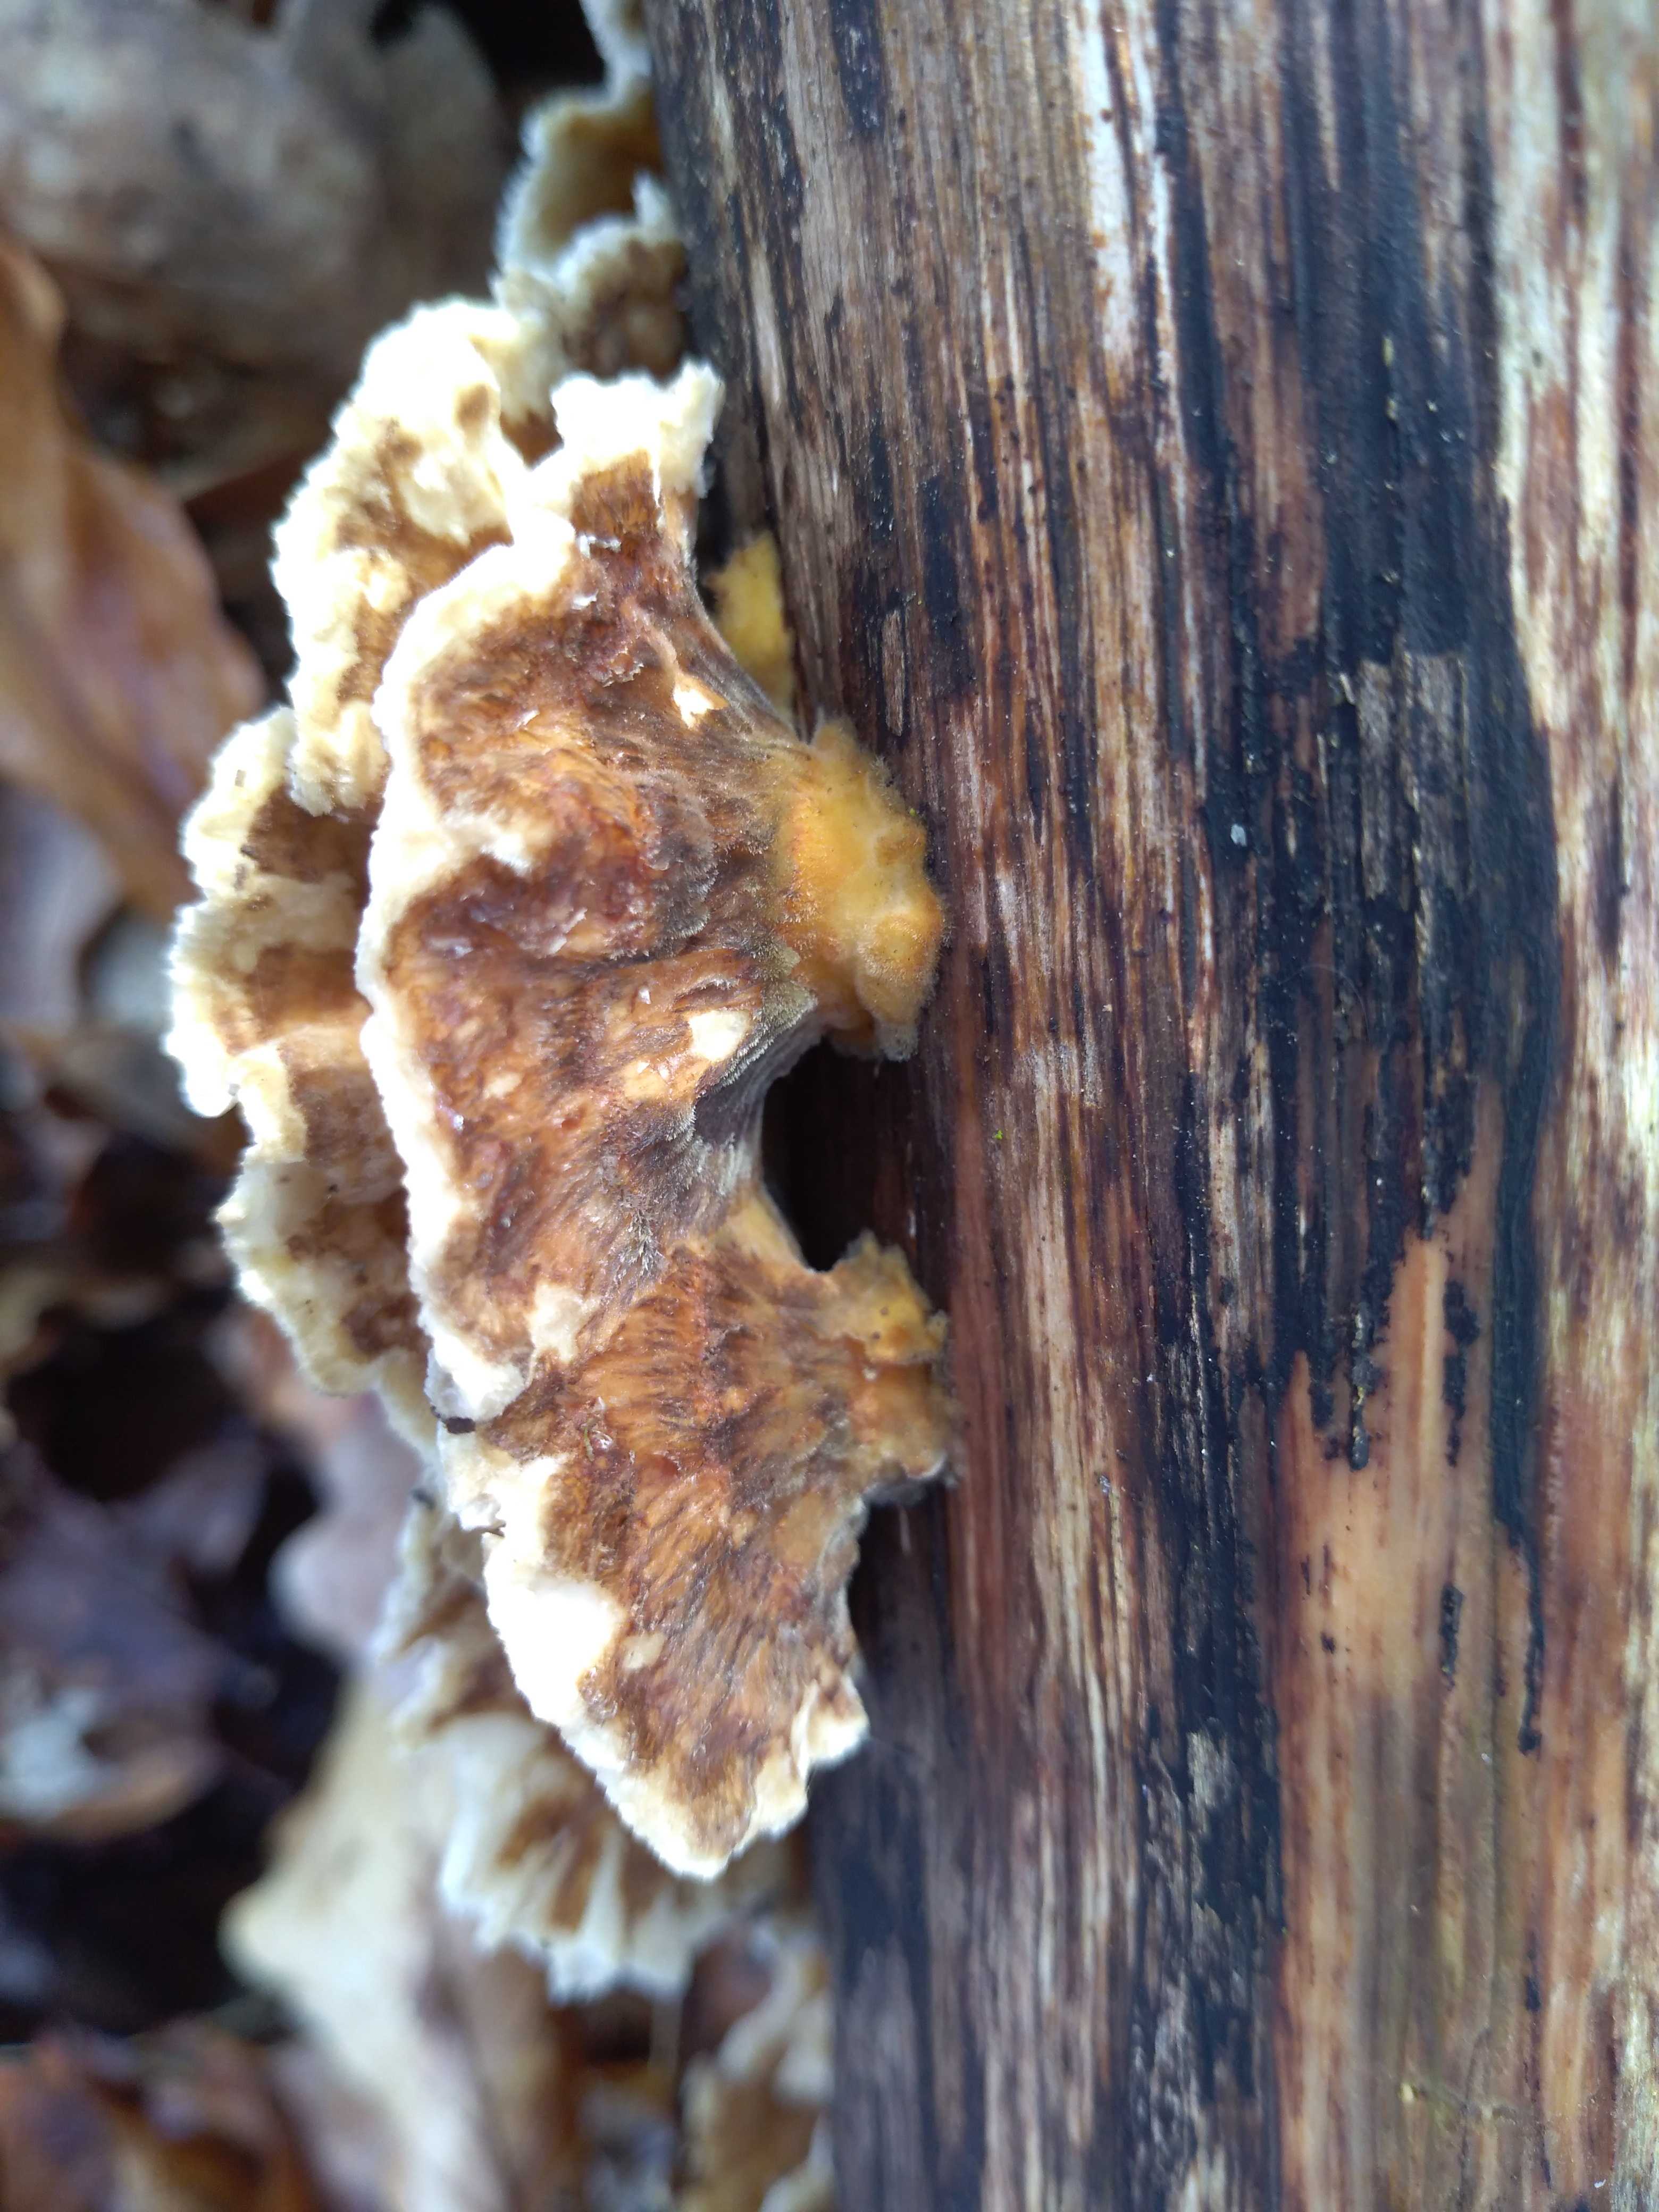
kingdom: Fungi
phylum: Basidiomycota
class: Agaricomycetes
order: Polyporales
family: Polyporaceae
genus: Trametes
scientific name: Trametes
